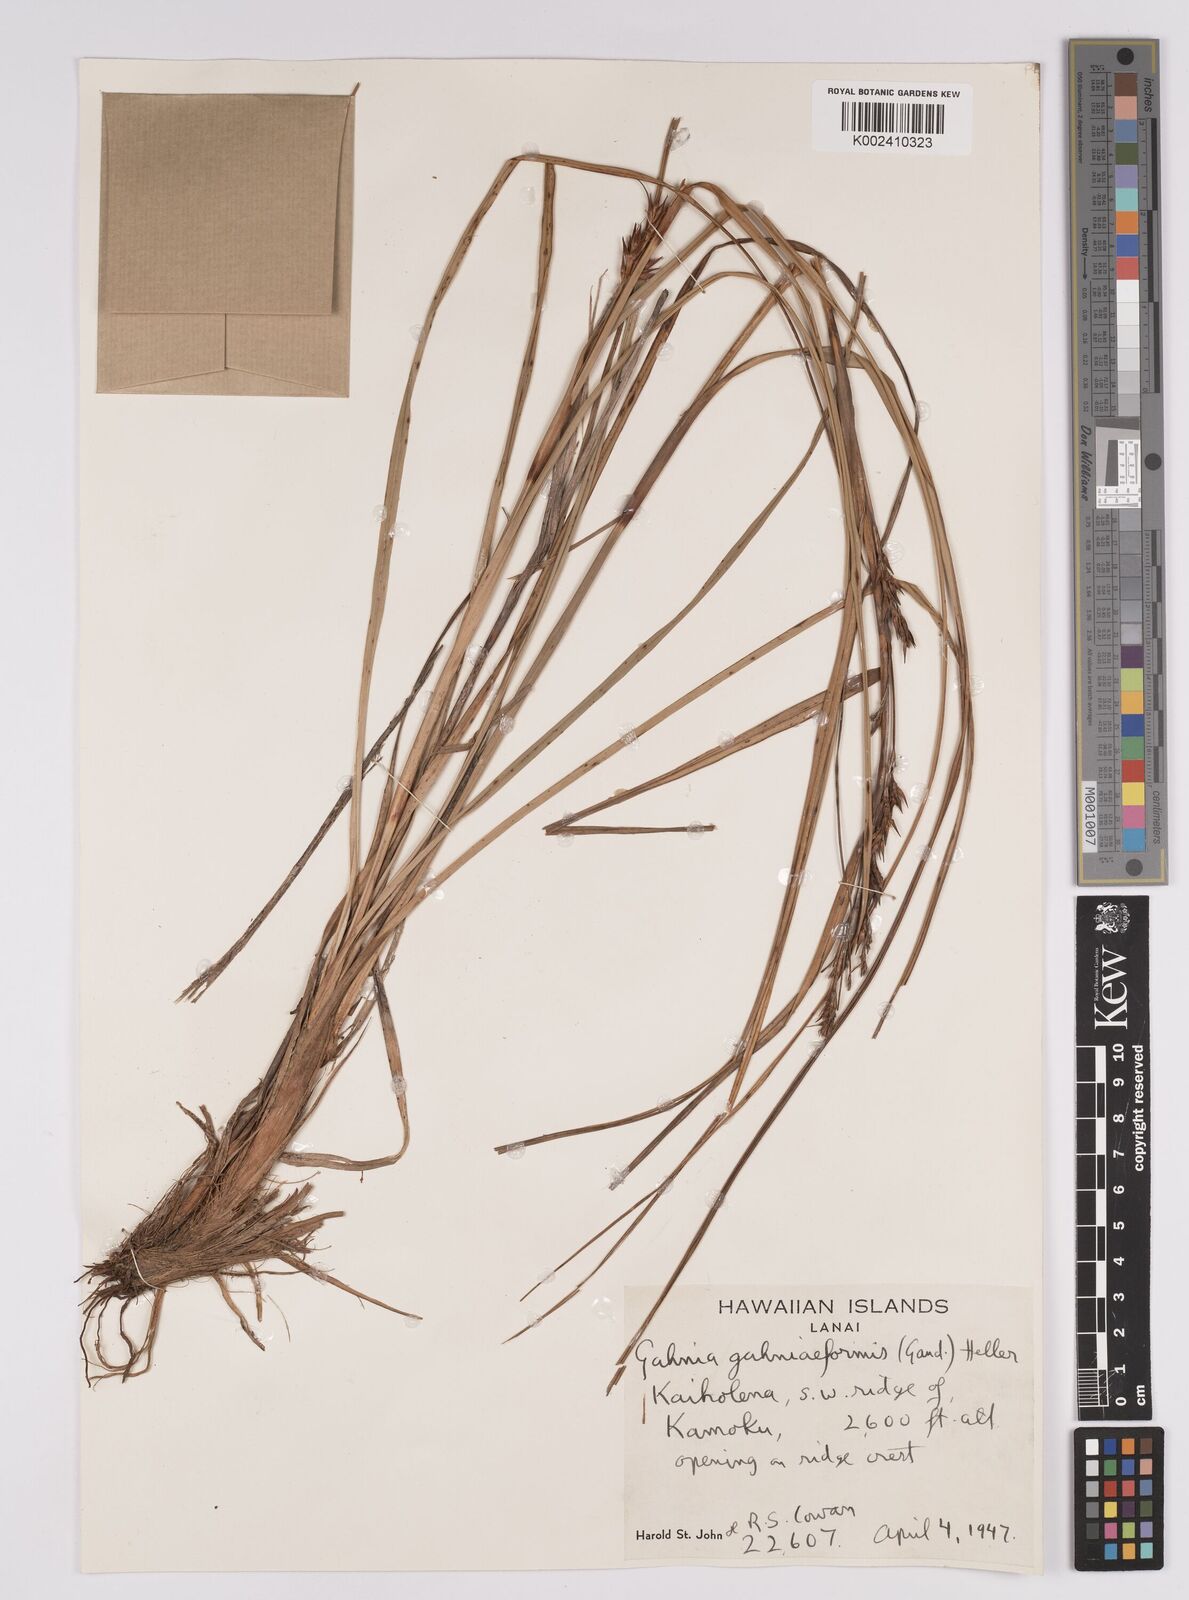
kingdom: Plantae
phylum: Tracheophyta
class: Liliopsida
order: Poales
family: Cyperaceae
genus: Morelotia
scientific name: Morelotia gahniiformis
